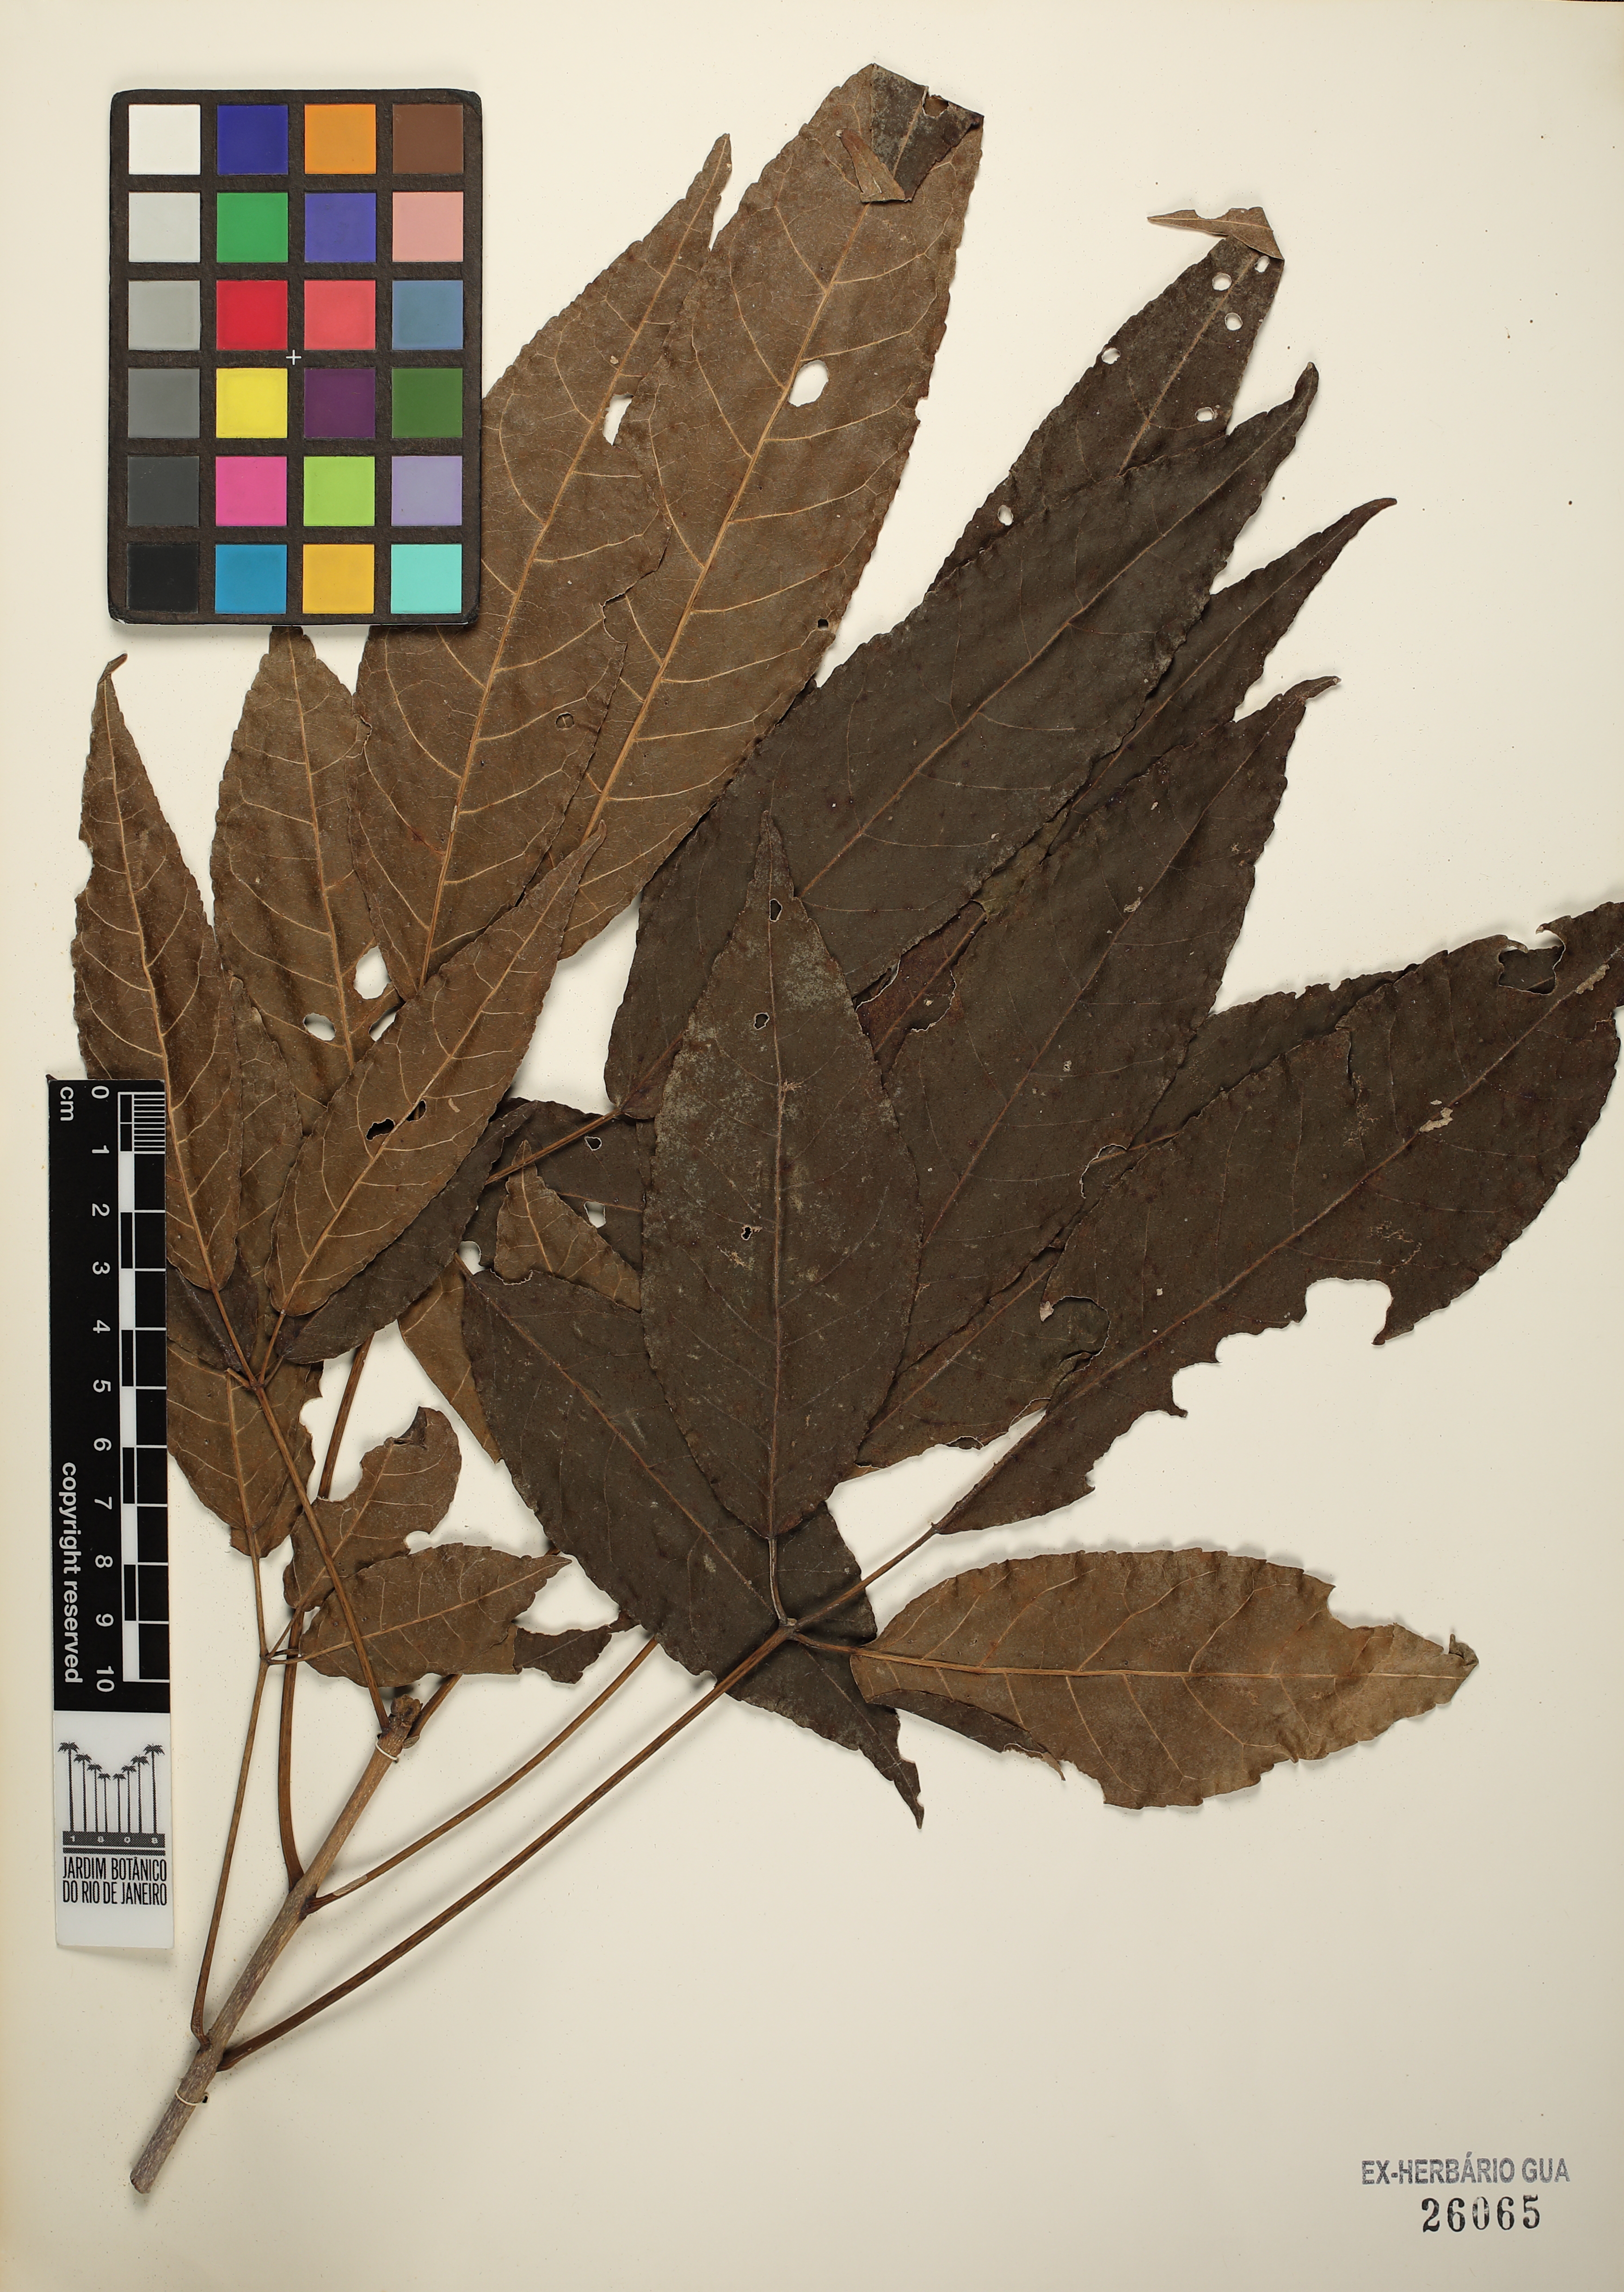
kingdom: Plantae
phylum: Tracheophyta
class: Magnoliopsida
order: Lamiales
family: Bignoniaceae
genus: Handroanthus
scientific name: Handroanthus serratifolius
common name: Yellow ipe
